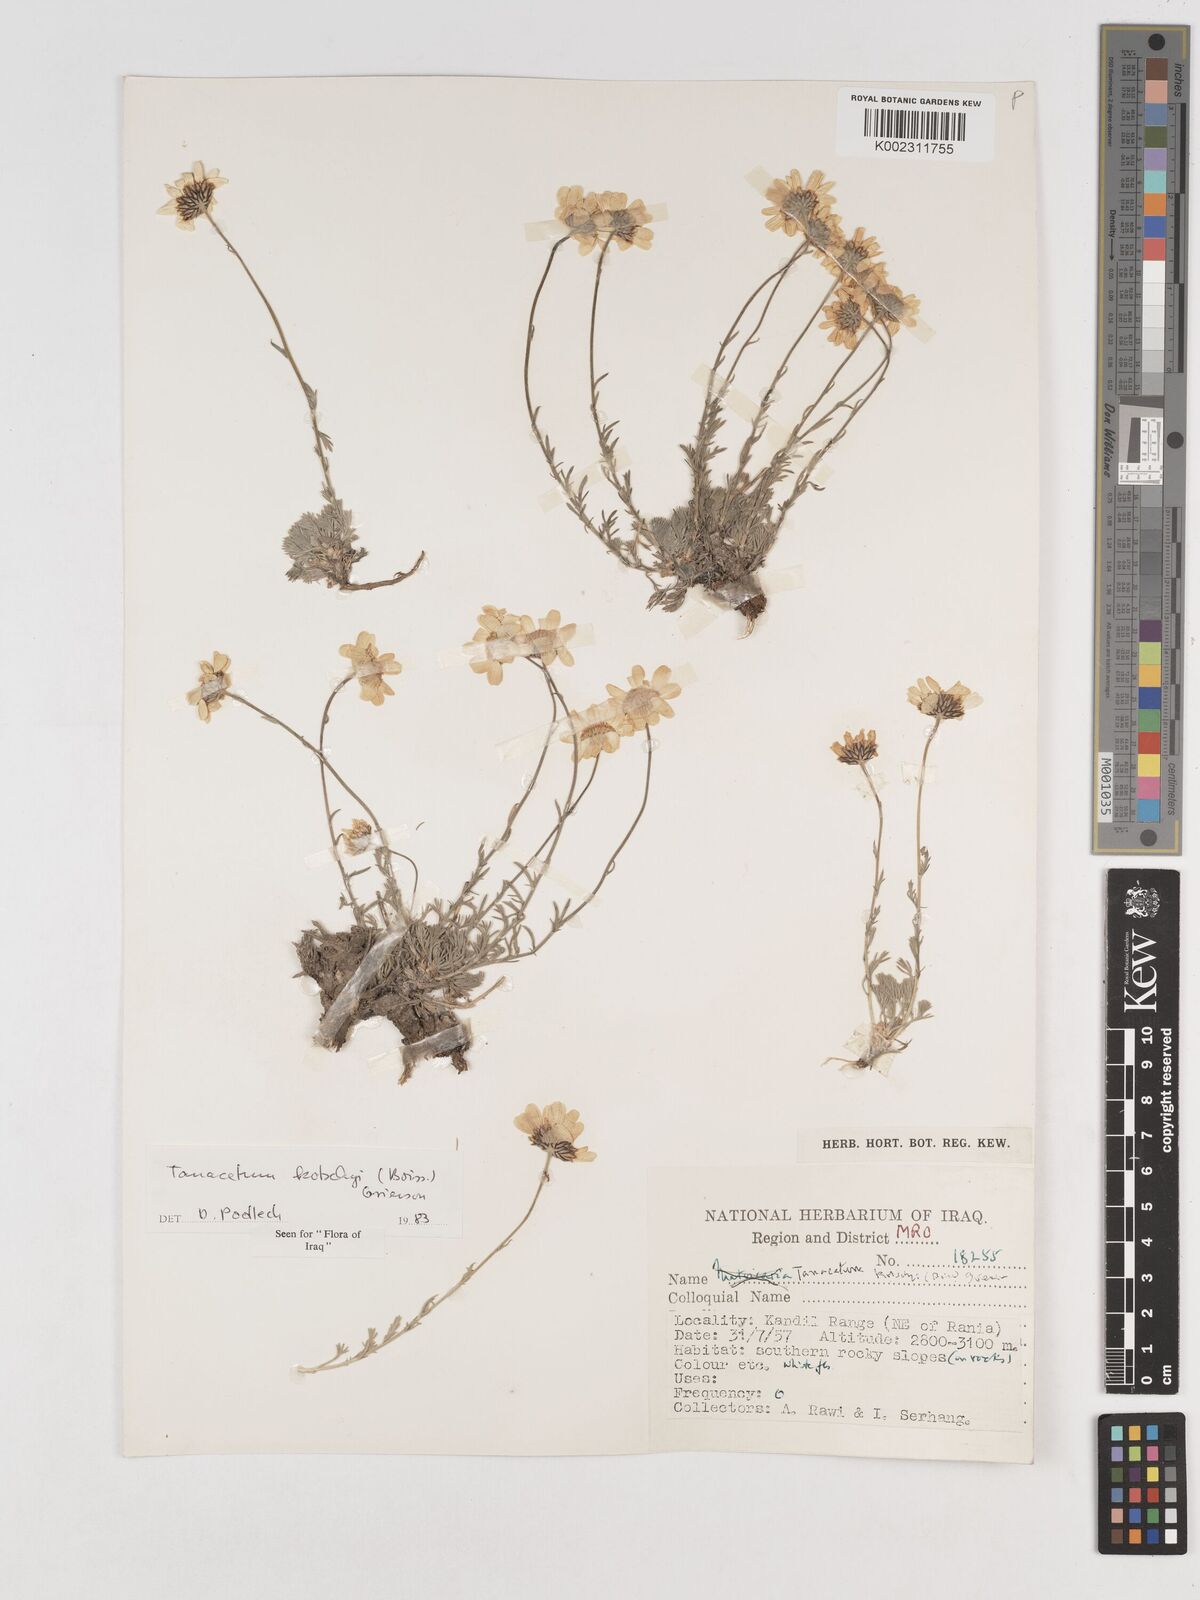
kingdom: Plantae
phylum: Tracheophyta
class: Magnoliopsida
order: Asterales
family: Asteraceae
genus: Tanacetum
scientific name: Tanacetum polycephalum
